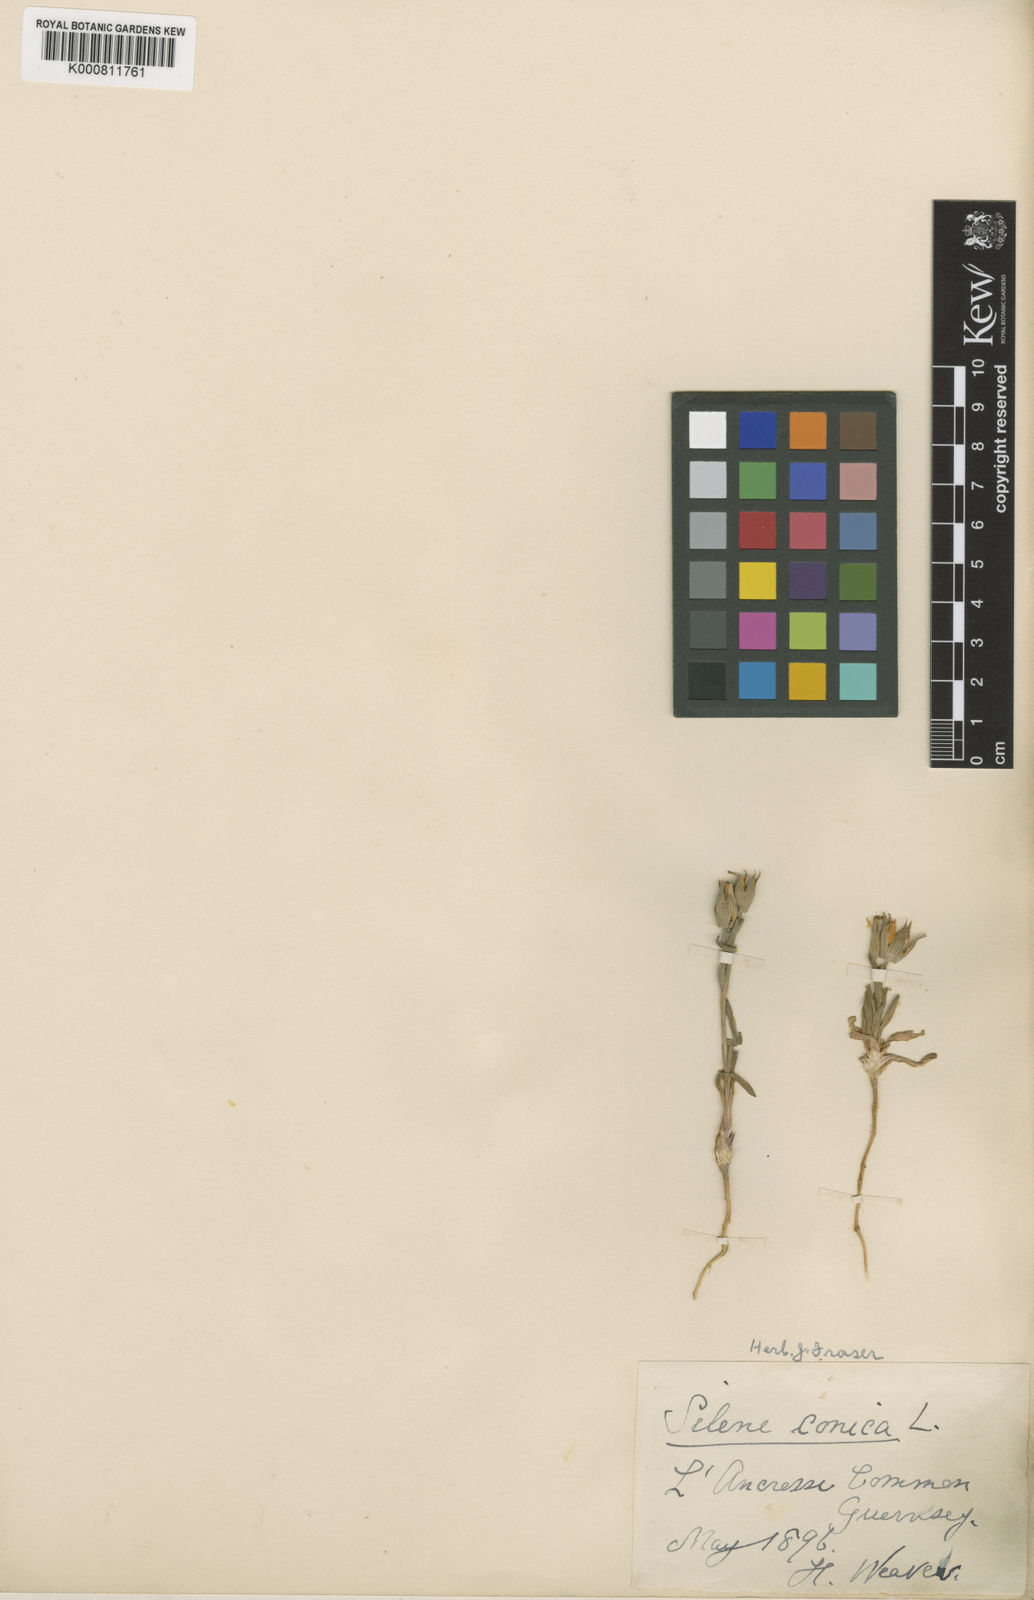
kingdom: Plantae
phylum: Tracheophyta
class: Magnoliopsida
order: Caryophyllales
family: Caryophyllaceae
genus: Silene
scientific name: Silene conica
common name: Sand catchfly
